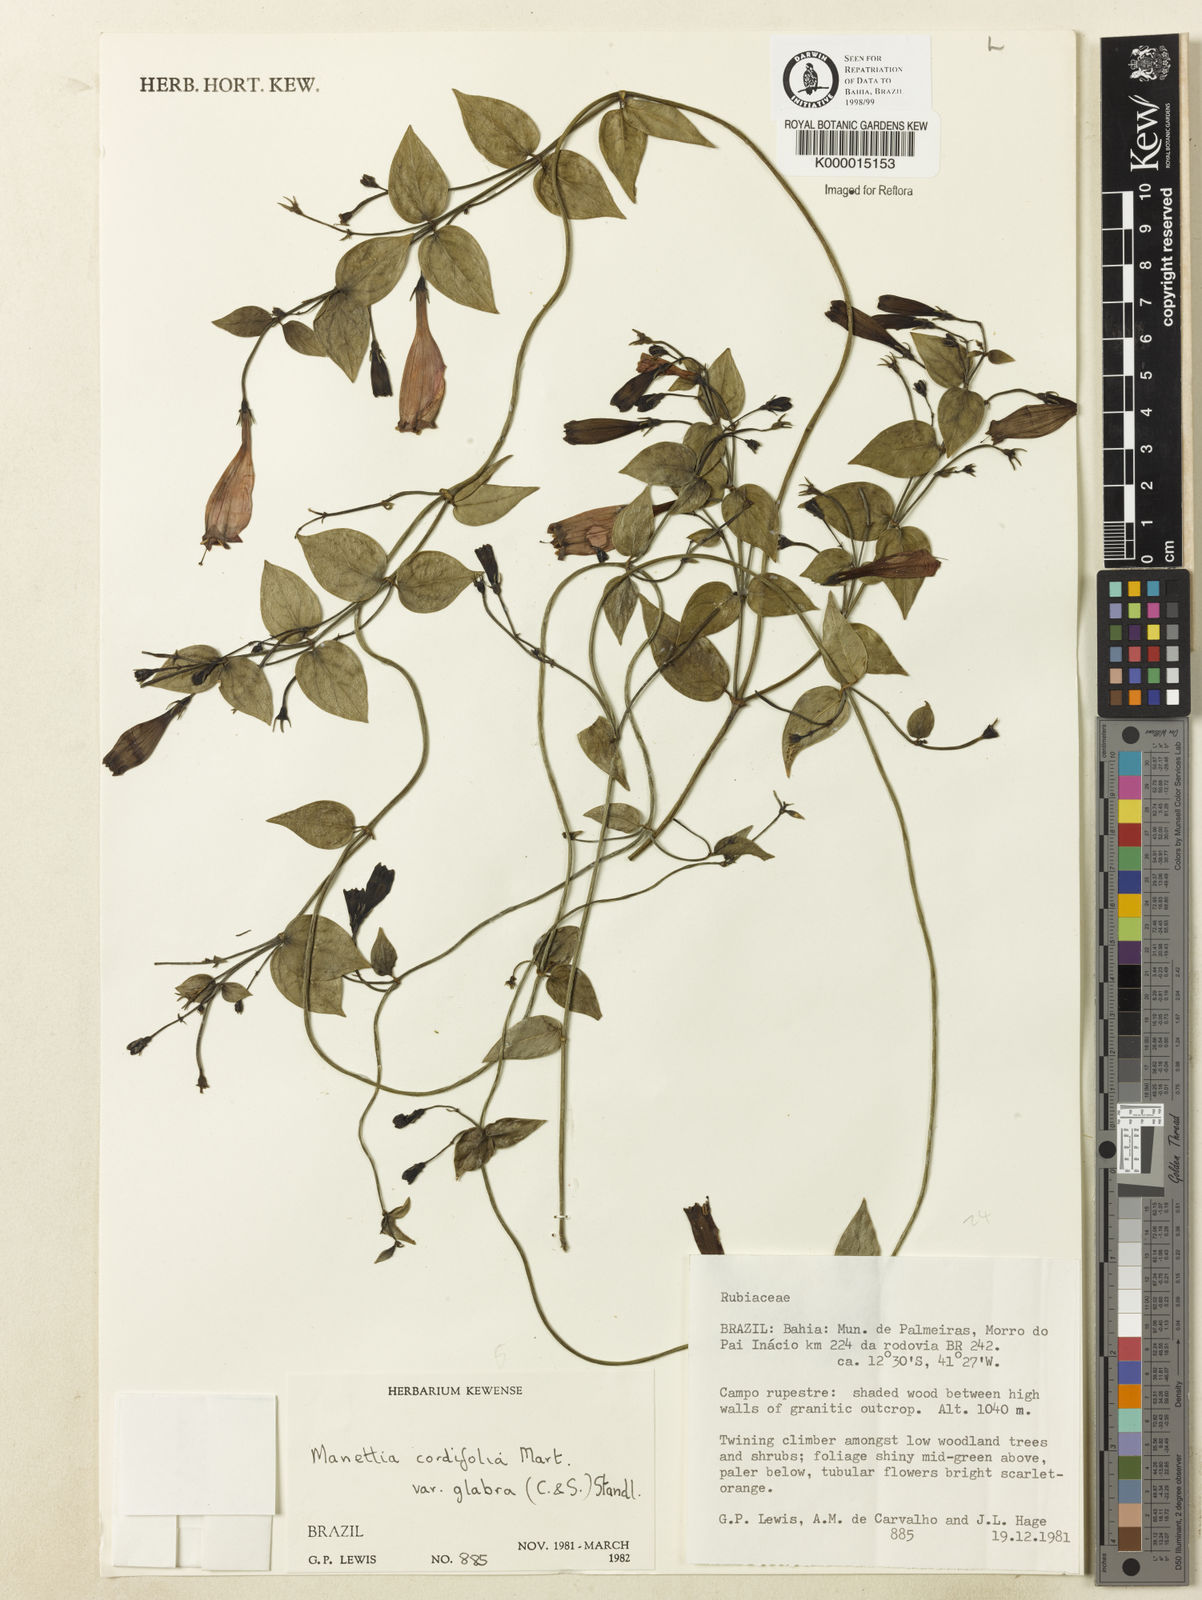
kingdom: Plantae
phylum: Tracheophyta
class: Magnoliopsida
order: Gentianales
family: Rubiaceae
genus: Manettia
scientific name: Manettia cordifolia
